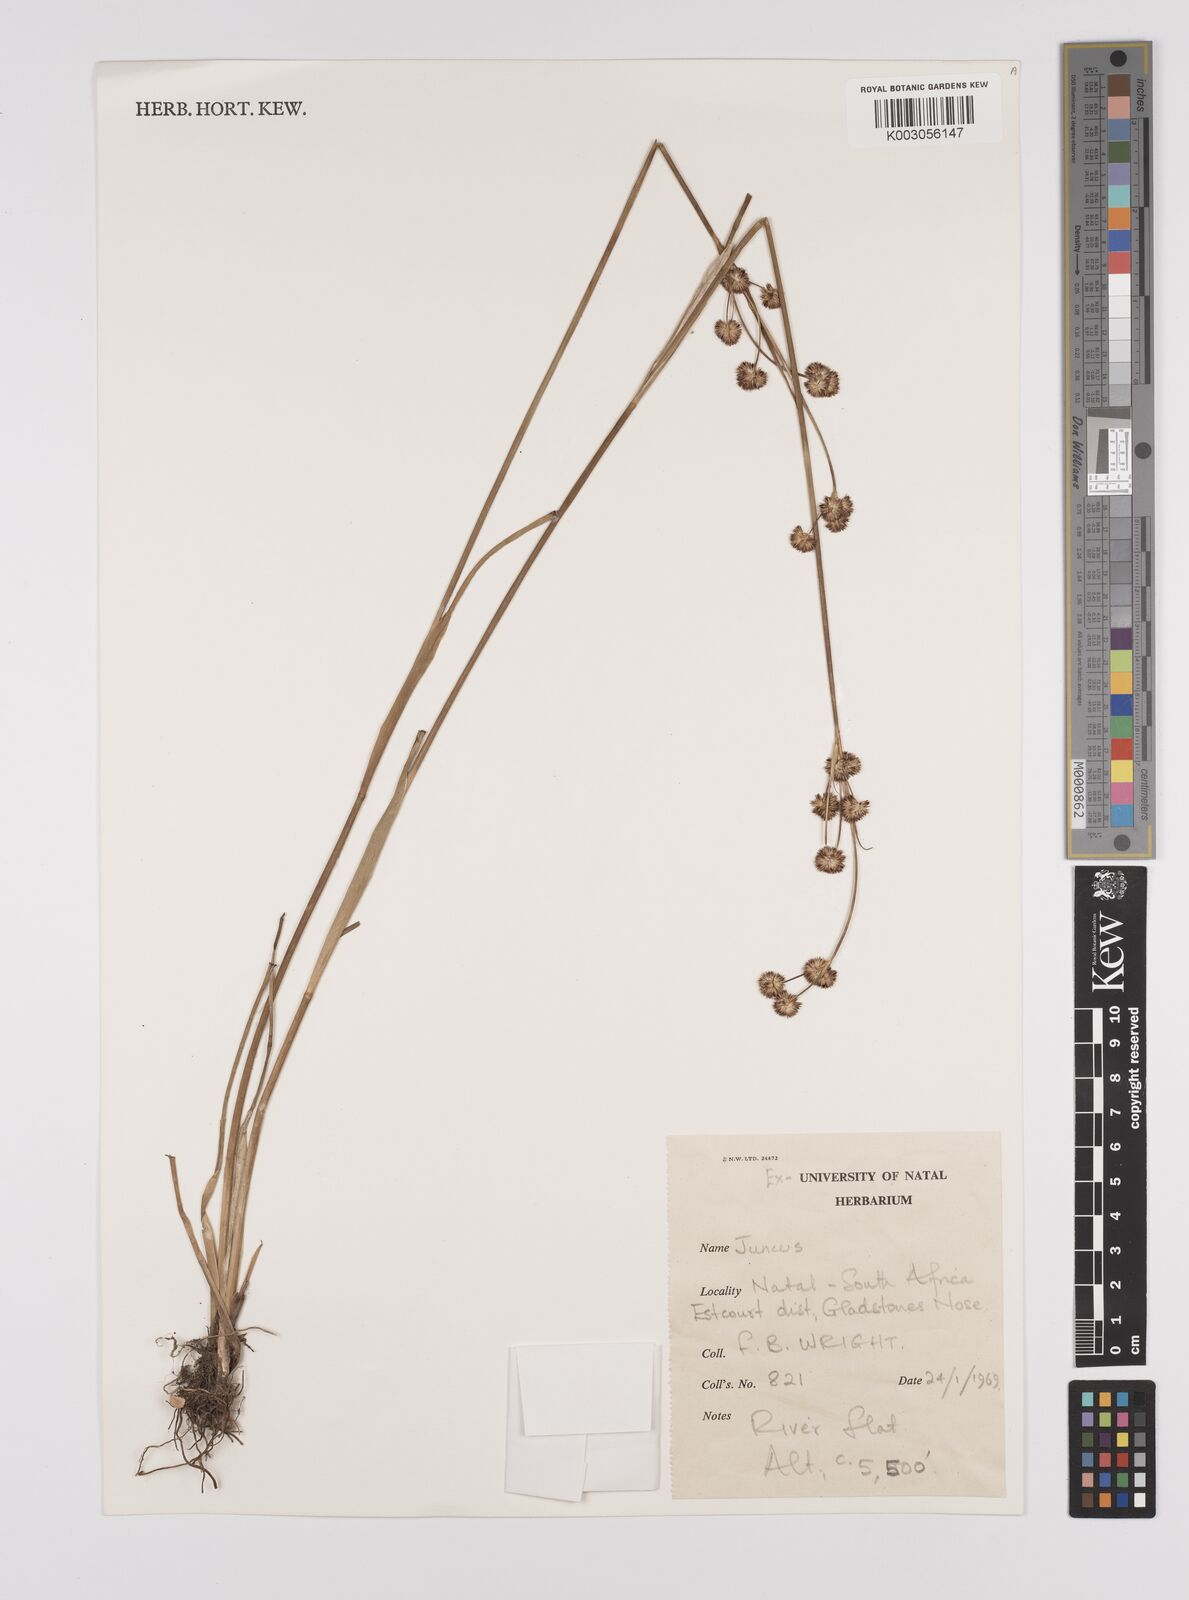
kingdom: Plantae
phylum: Tracheophyta
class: Liliopsida
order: Poales
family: Juncaceae
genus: Juncus
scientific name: Juncus
